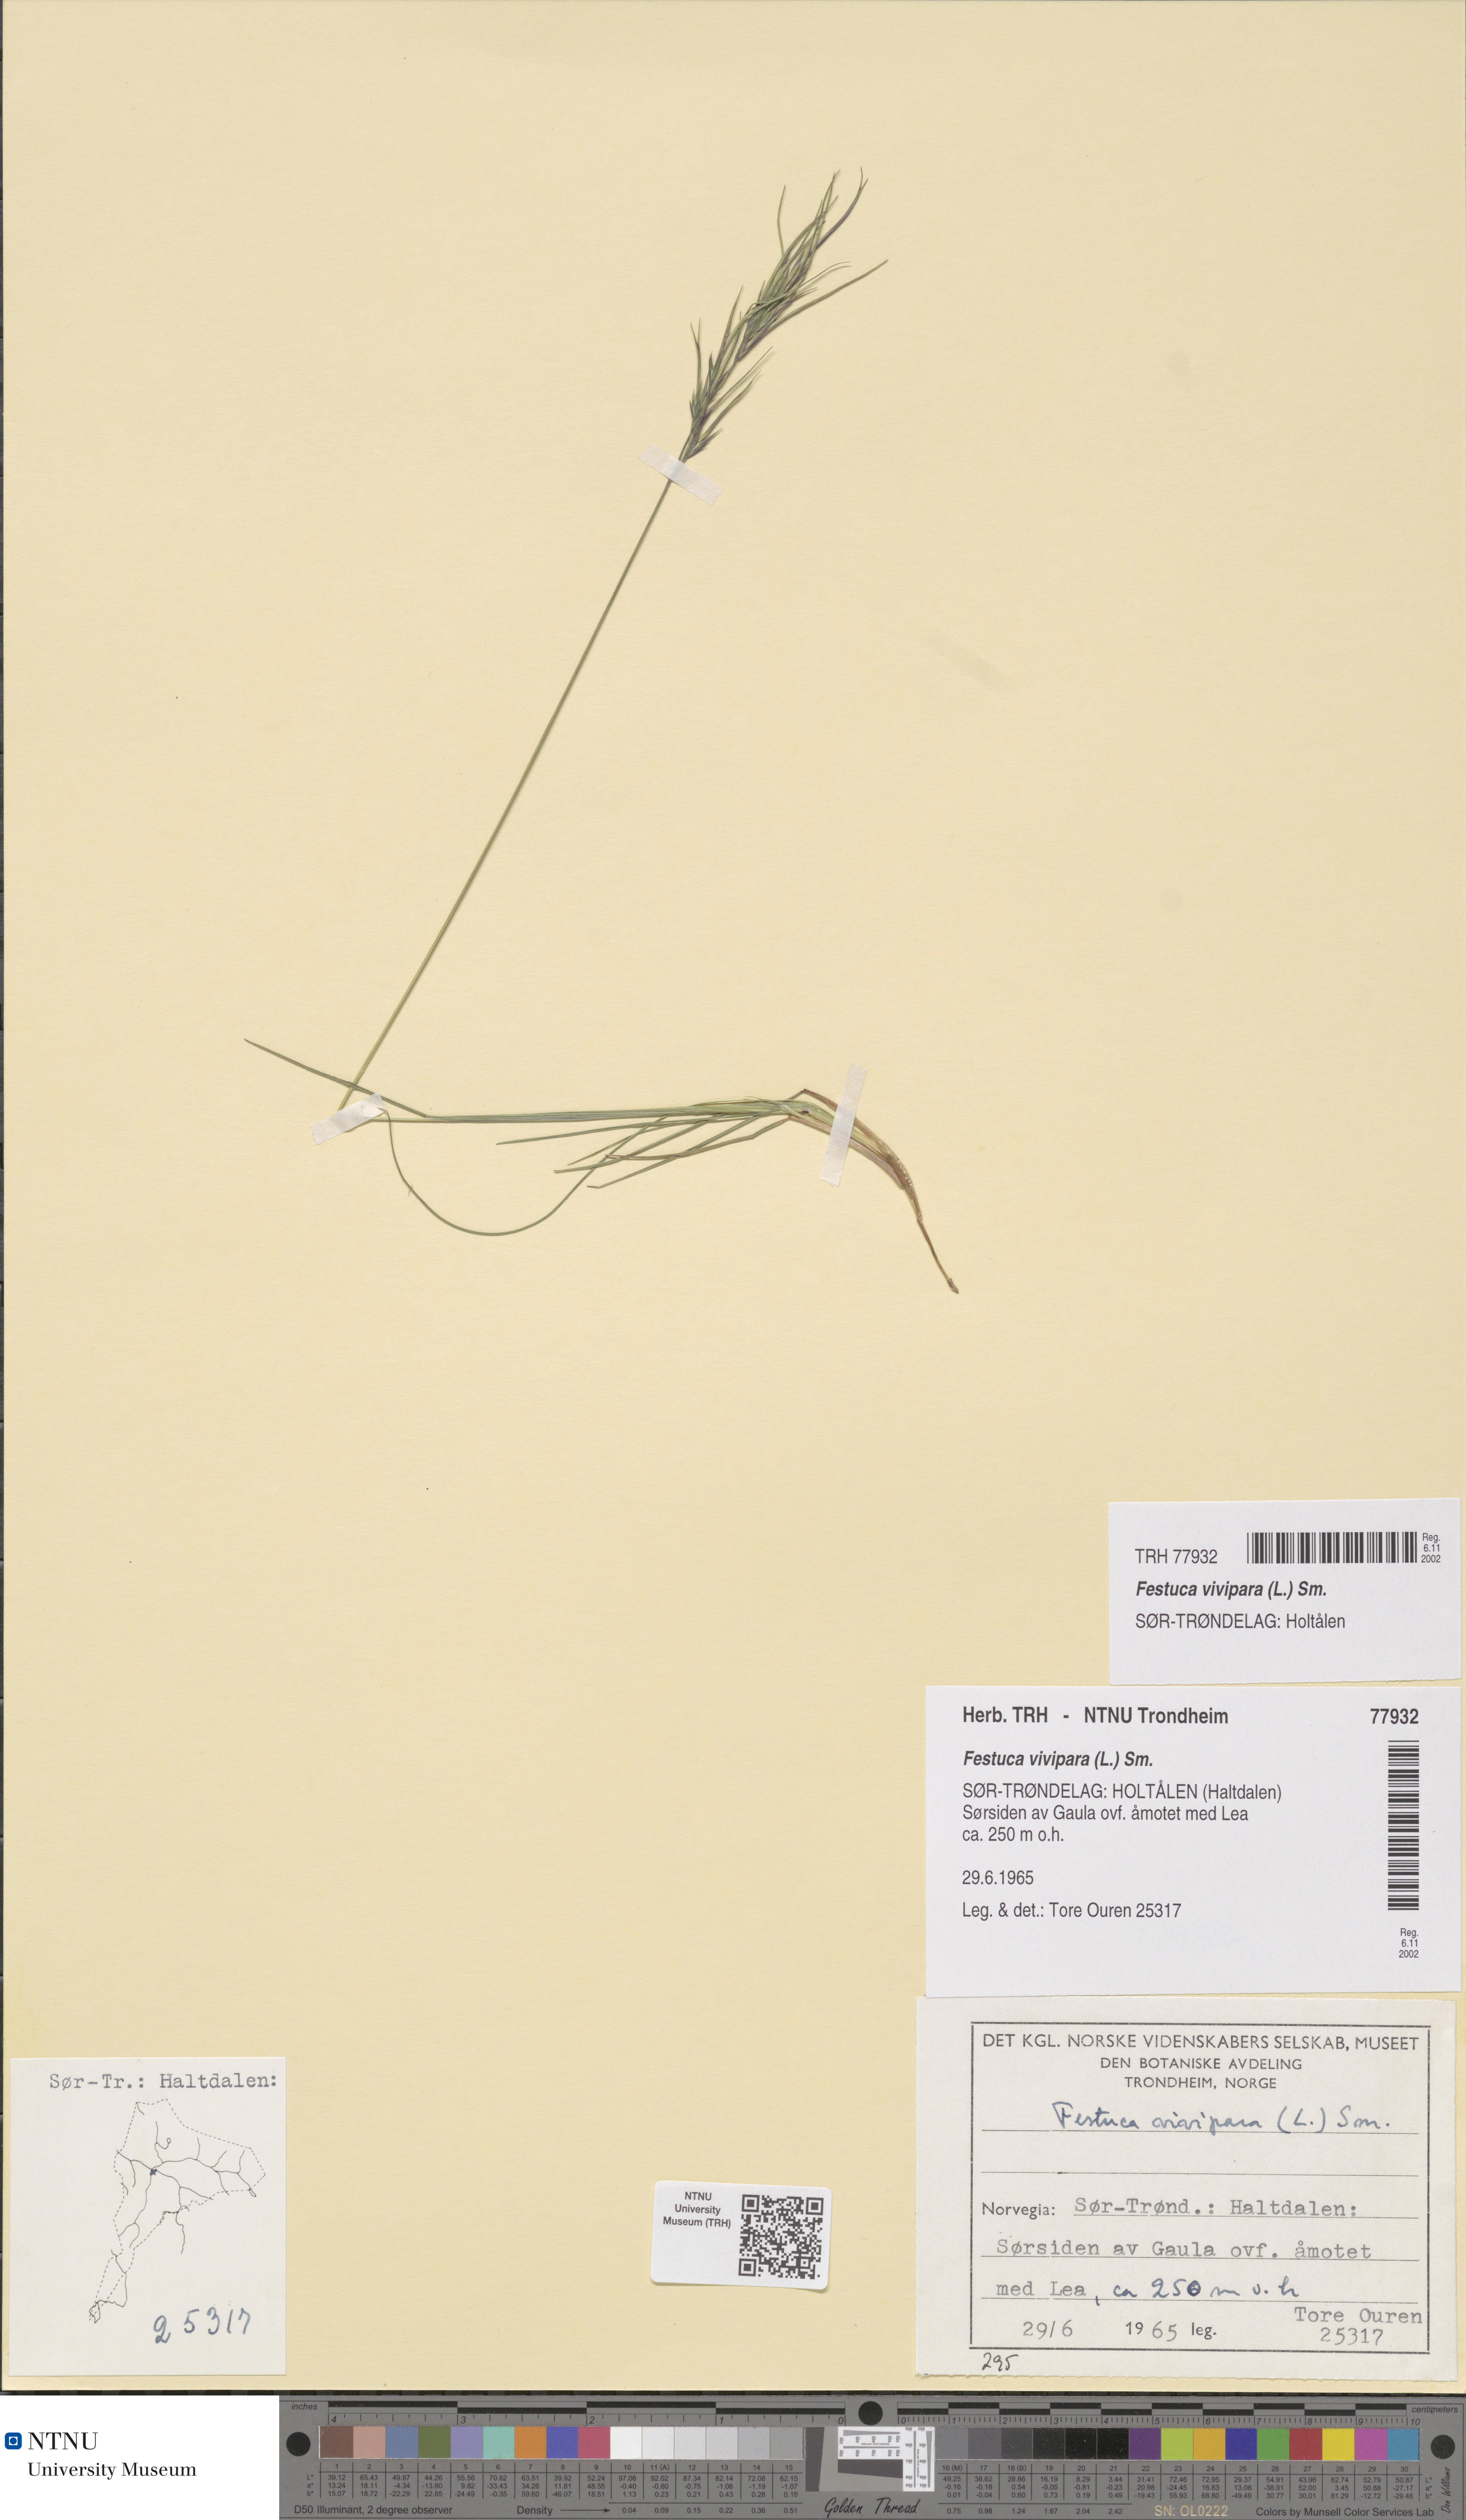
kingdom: Plantae
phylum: Tracheophyta
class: Liliopsida
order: Poales
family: Poaceae
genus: Festuca
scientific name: Festuca vivipara
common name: Viviparous sheep's-fescue
